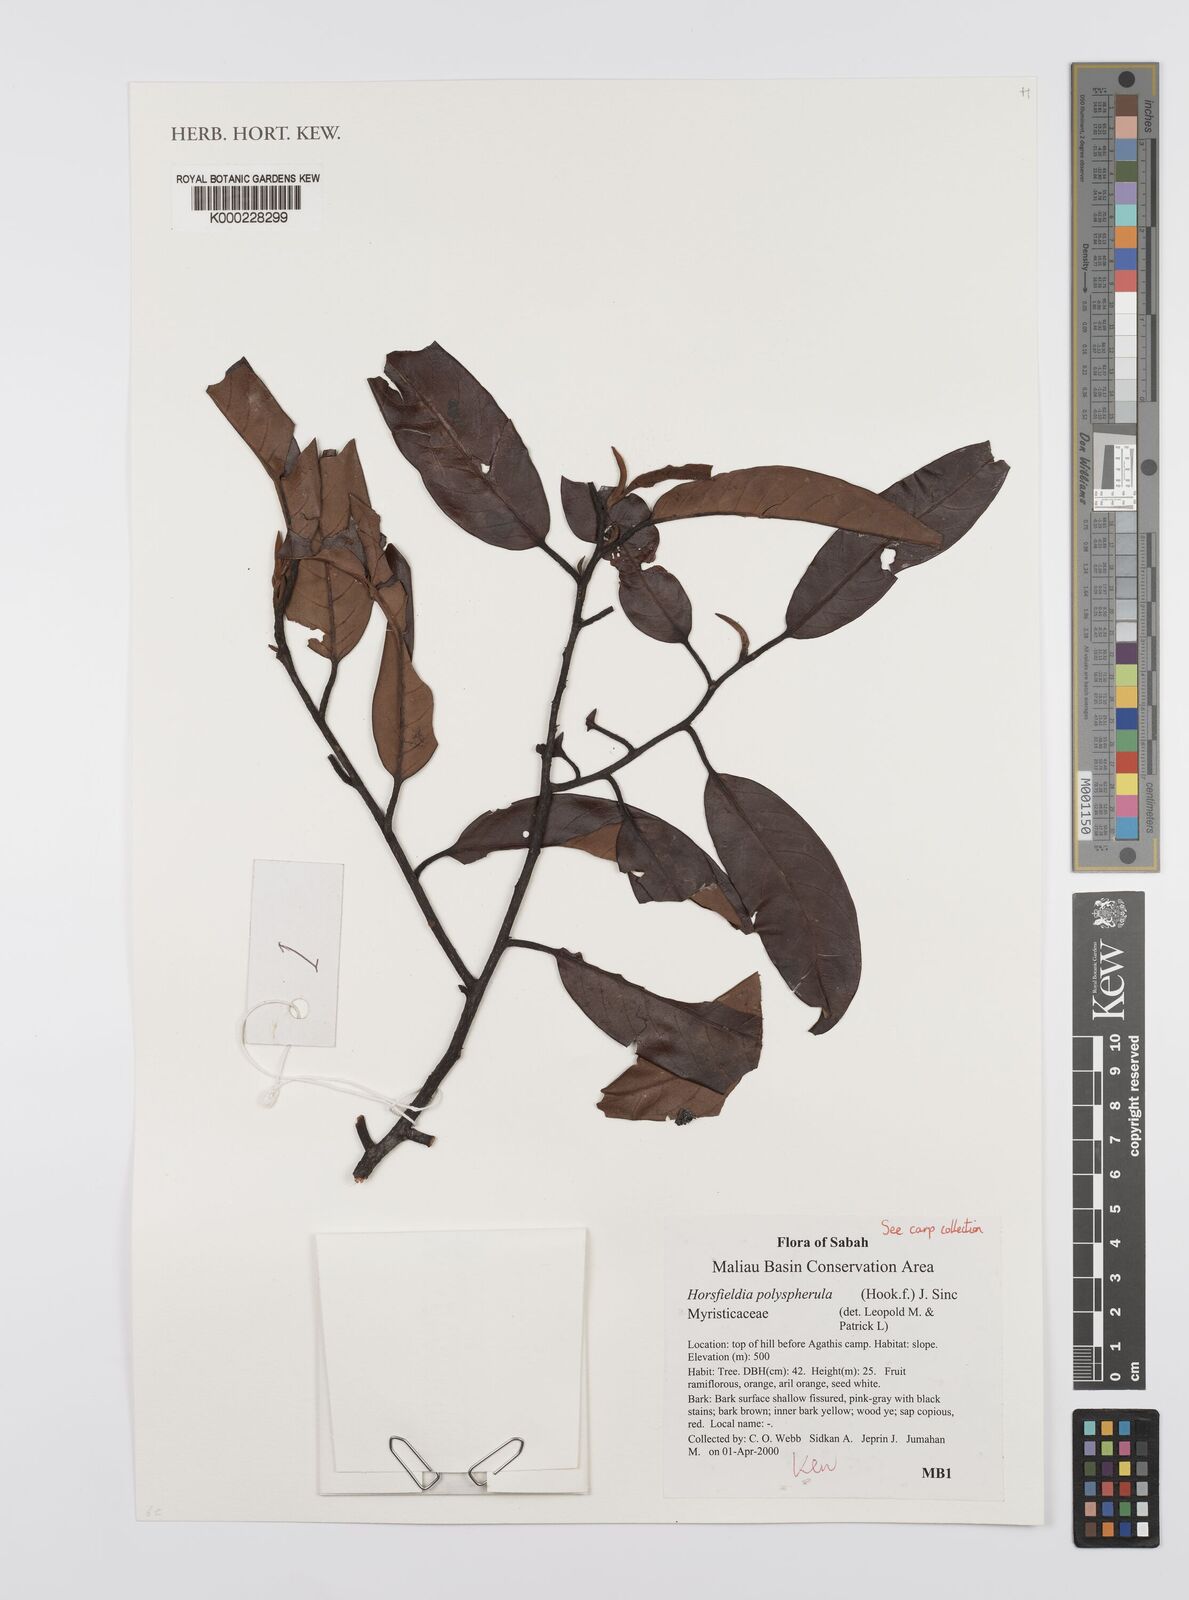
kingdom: Plantae
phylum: Tracheophyta
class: Magnoliopsida
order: Magnoliales
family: Myristicaceae
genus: Horsfieldia
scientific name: Horsfieldia polyspherula
